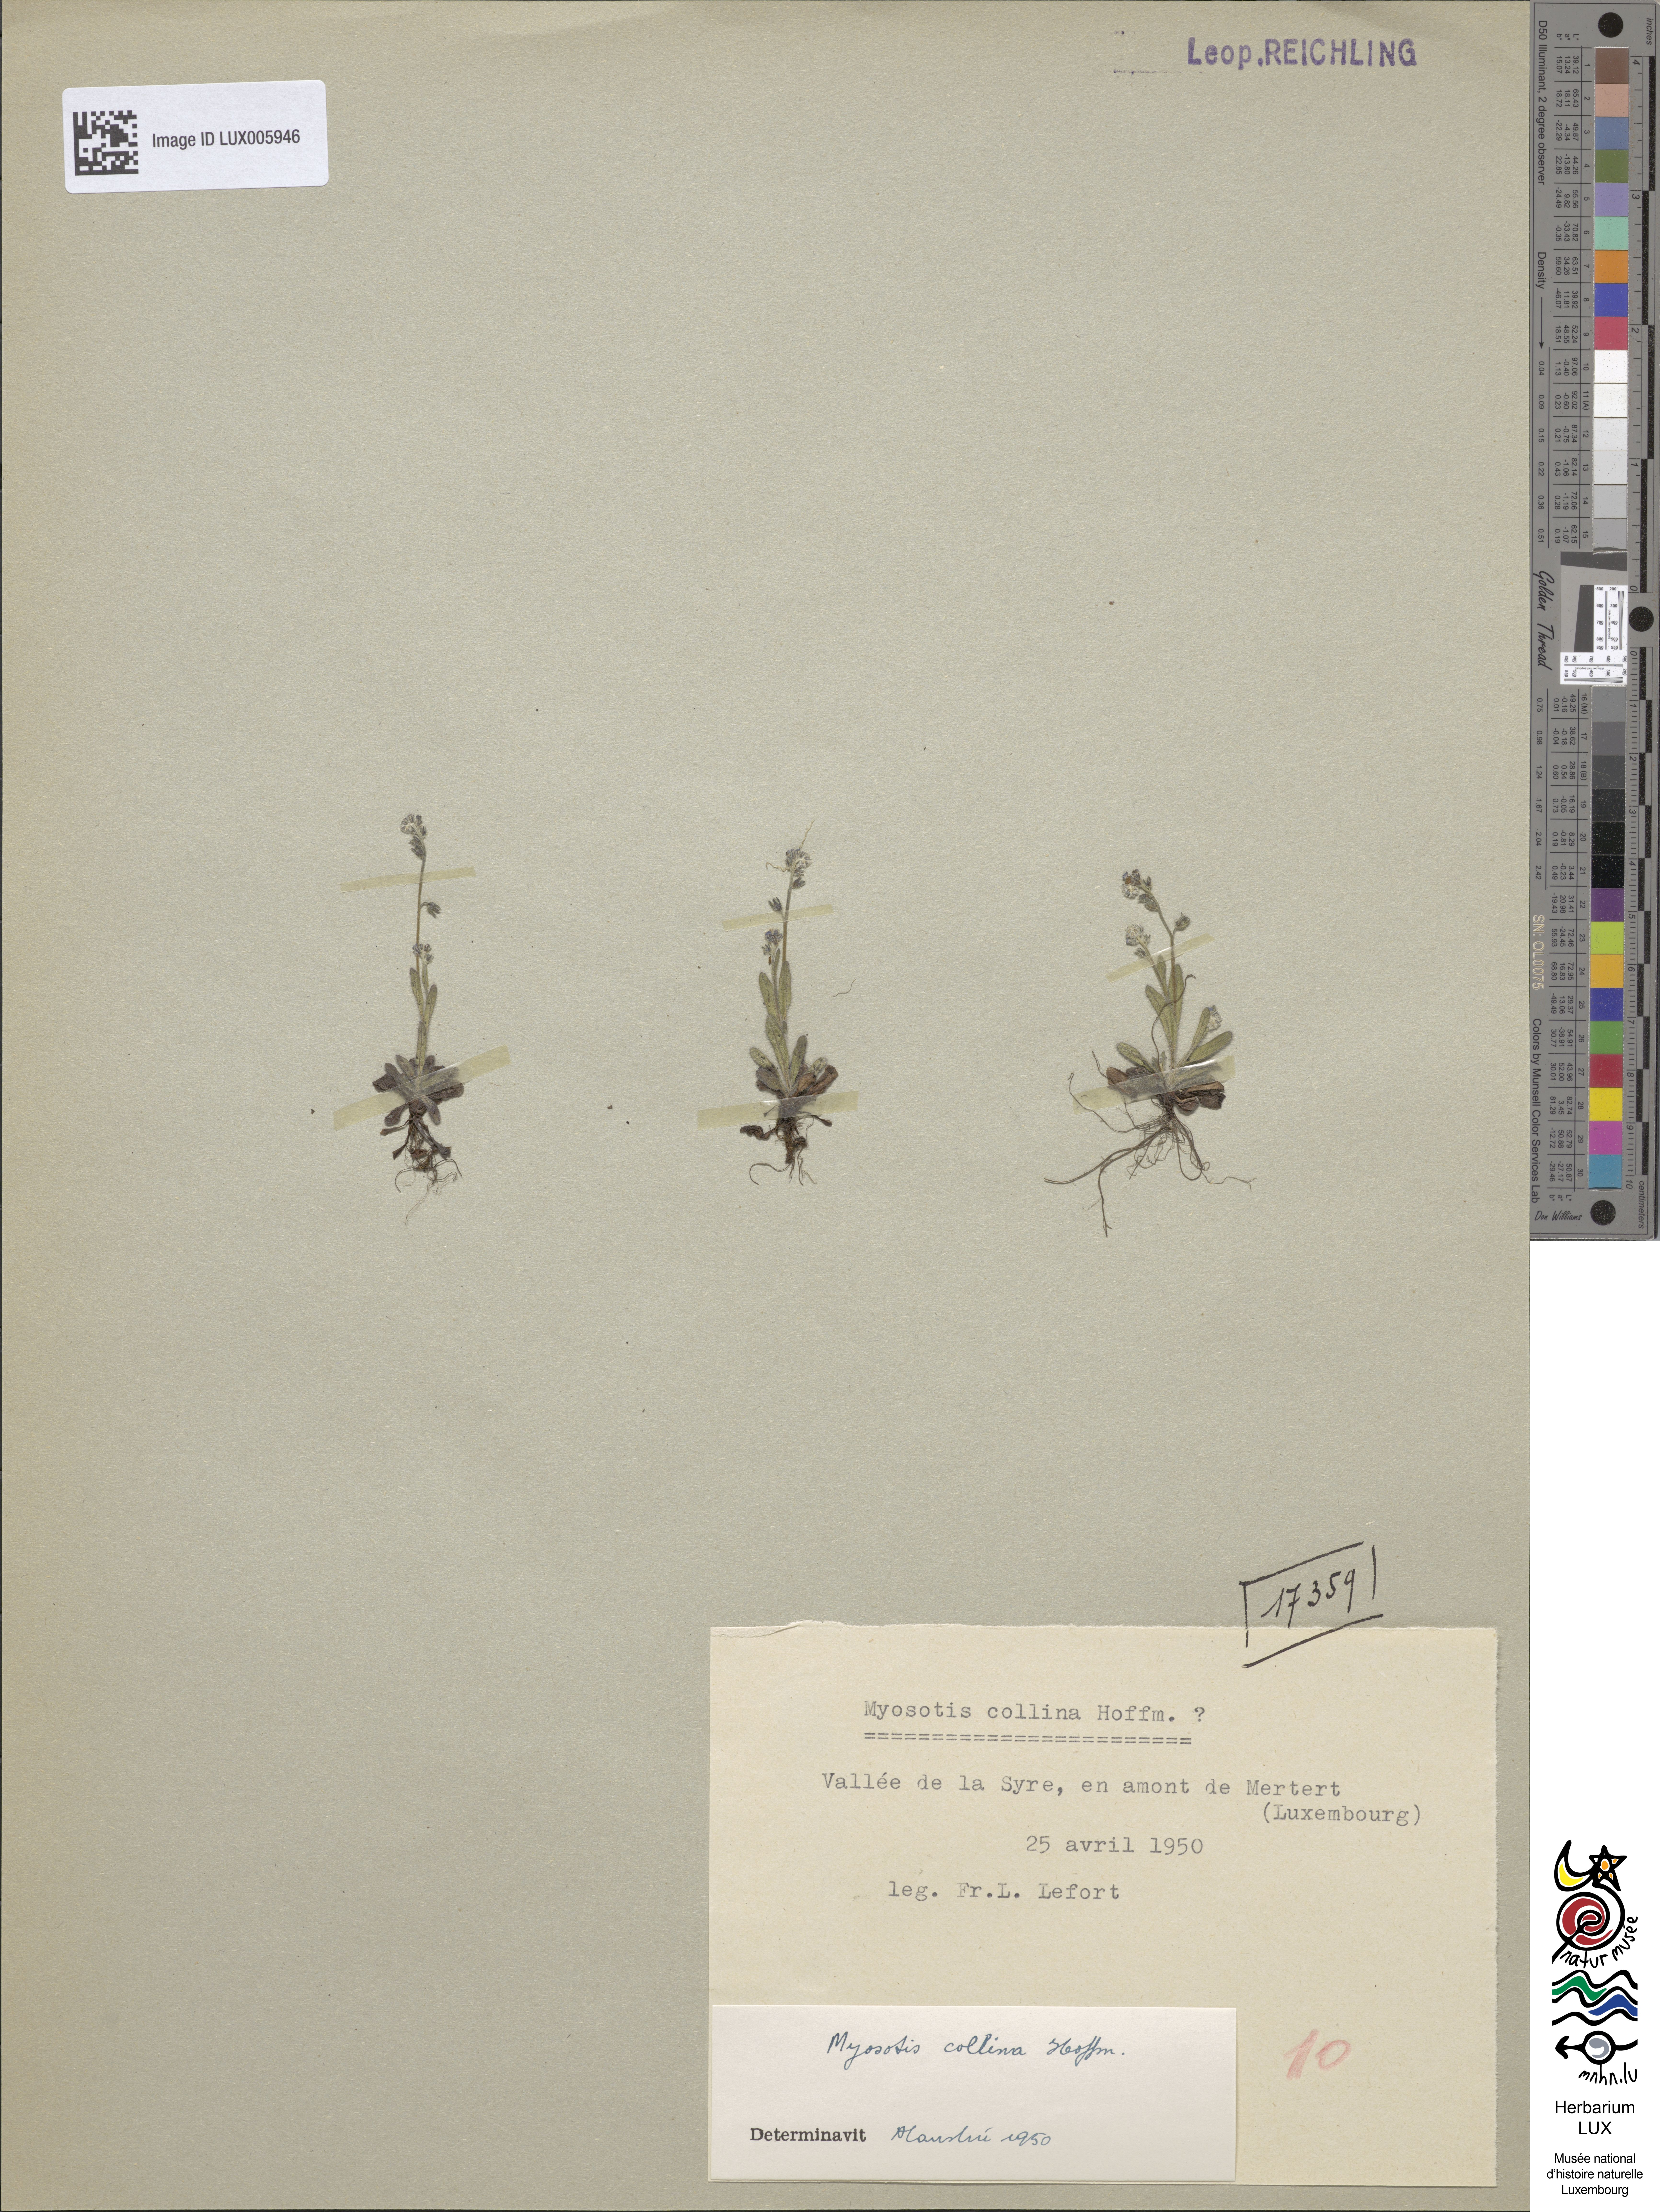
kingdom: Plantae
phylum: Tracheophyta
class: Magnoliopsida
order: Boraginales
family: Boraginaceae
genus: Myosotis
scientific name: Myosotis discolor
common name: Changing forget-me-not
